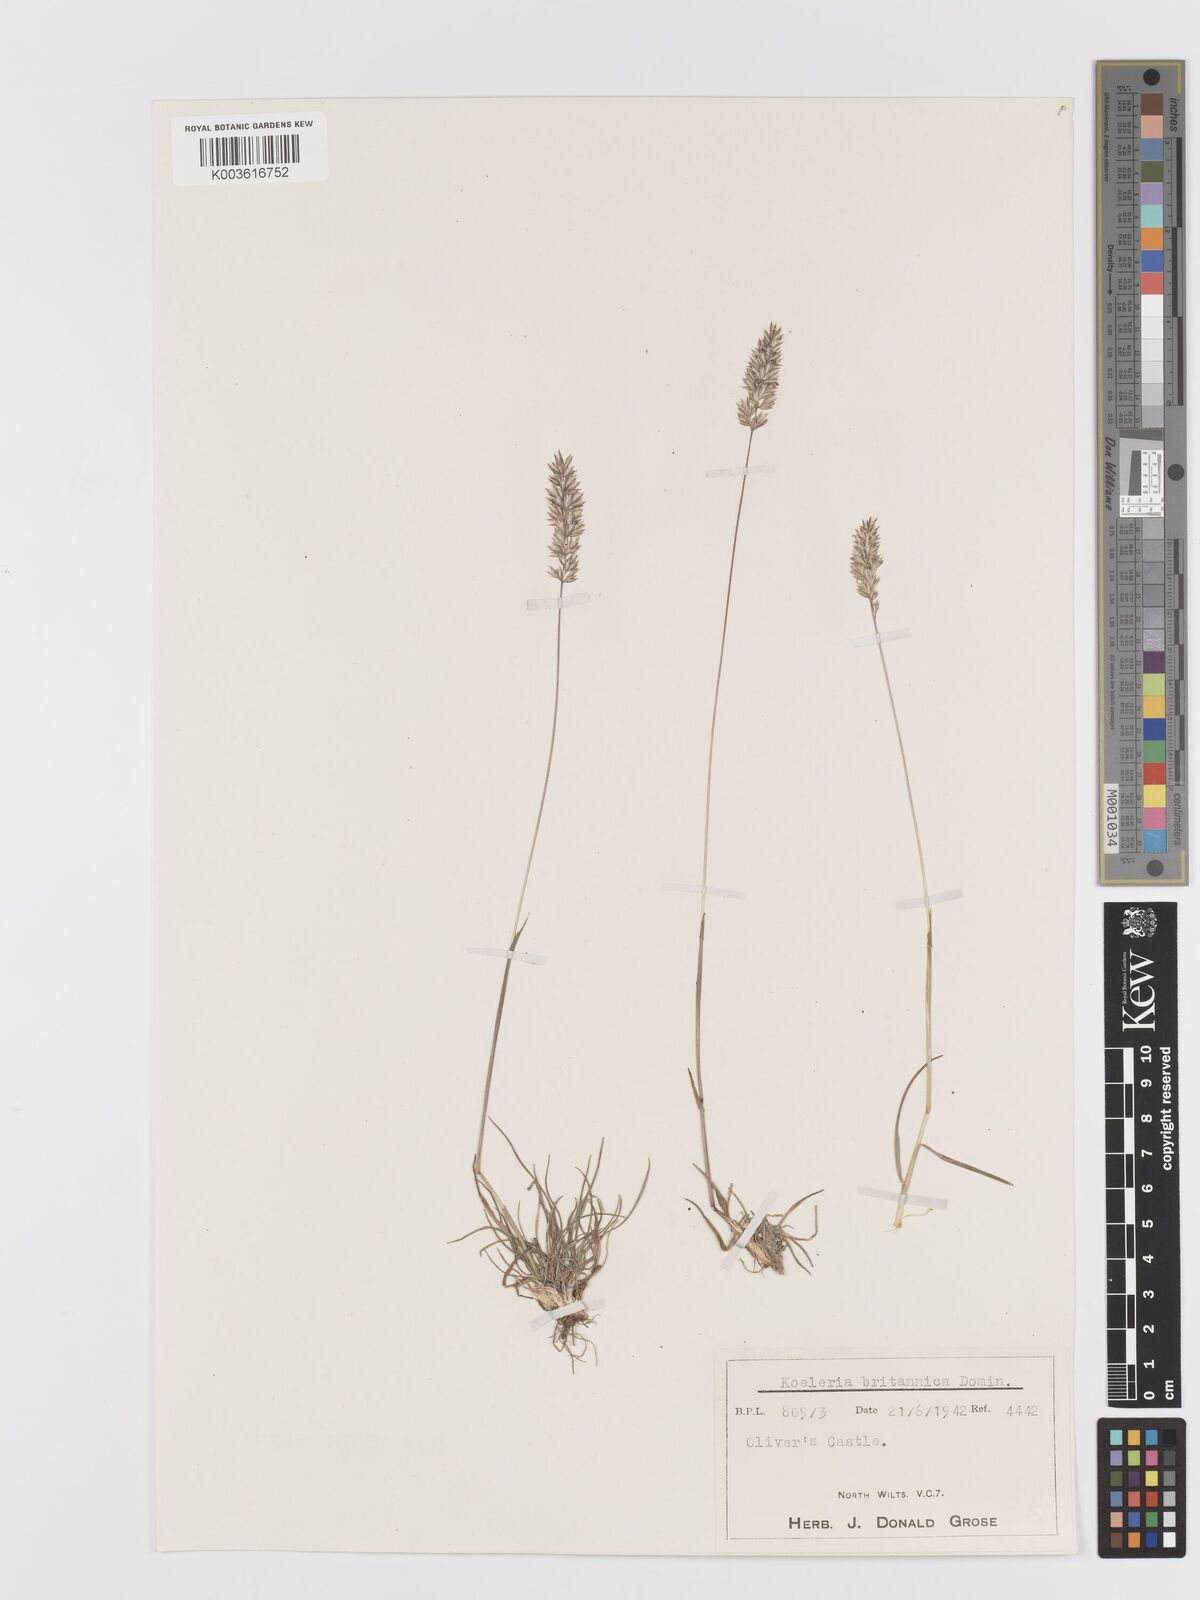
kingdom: Plantae
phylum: Tracheophyta
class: Liliopsida
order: Poales
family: Poaceae
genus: Koeleria
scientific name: Koeleria
